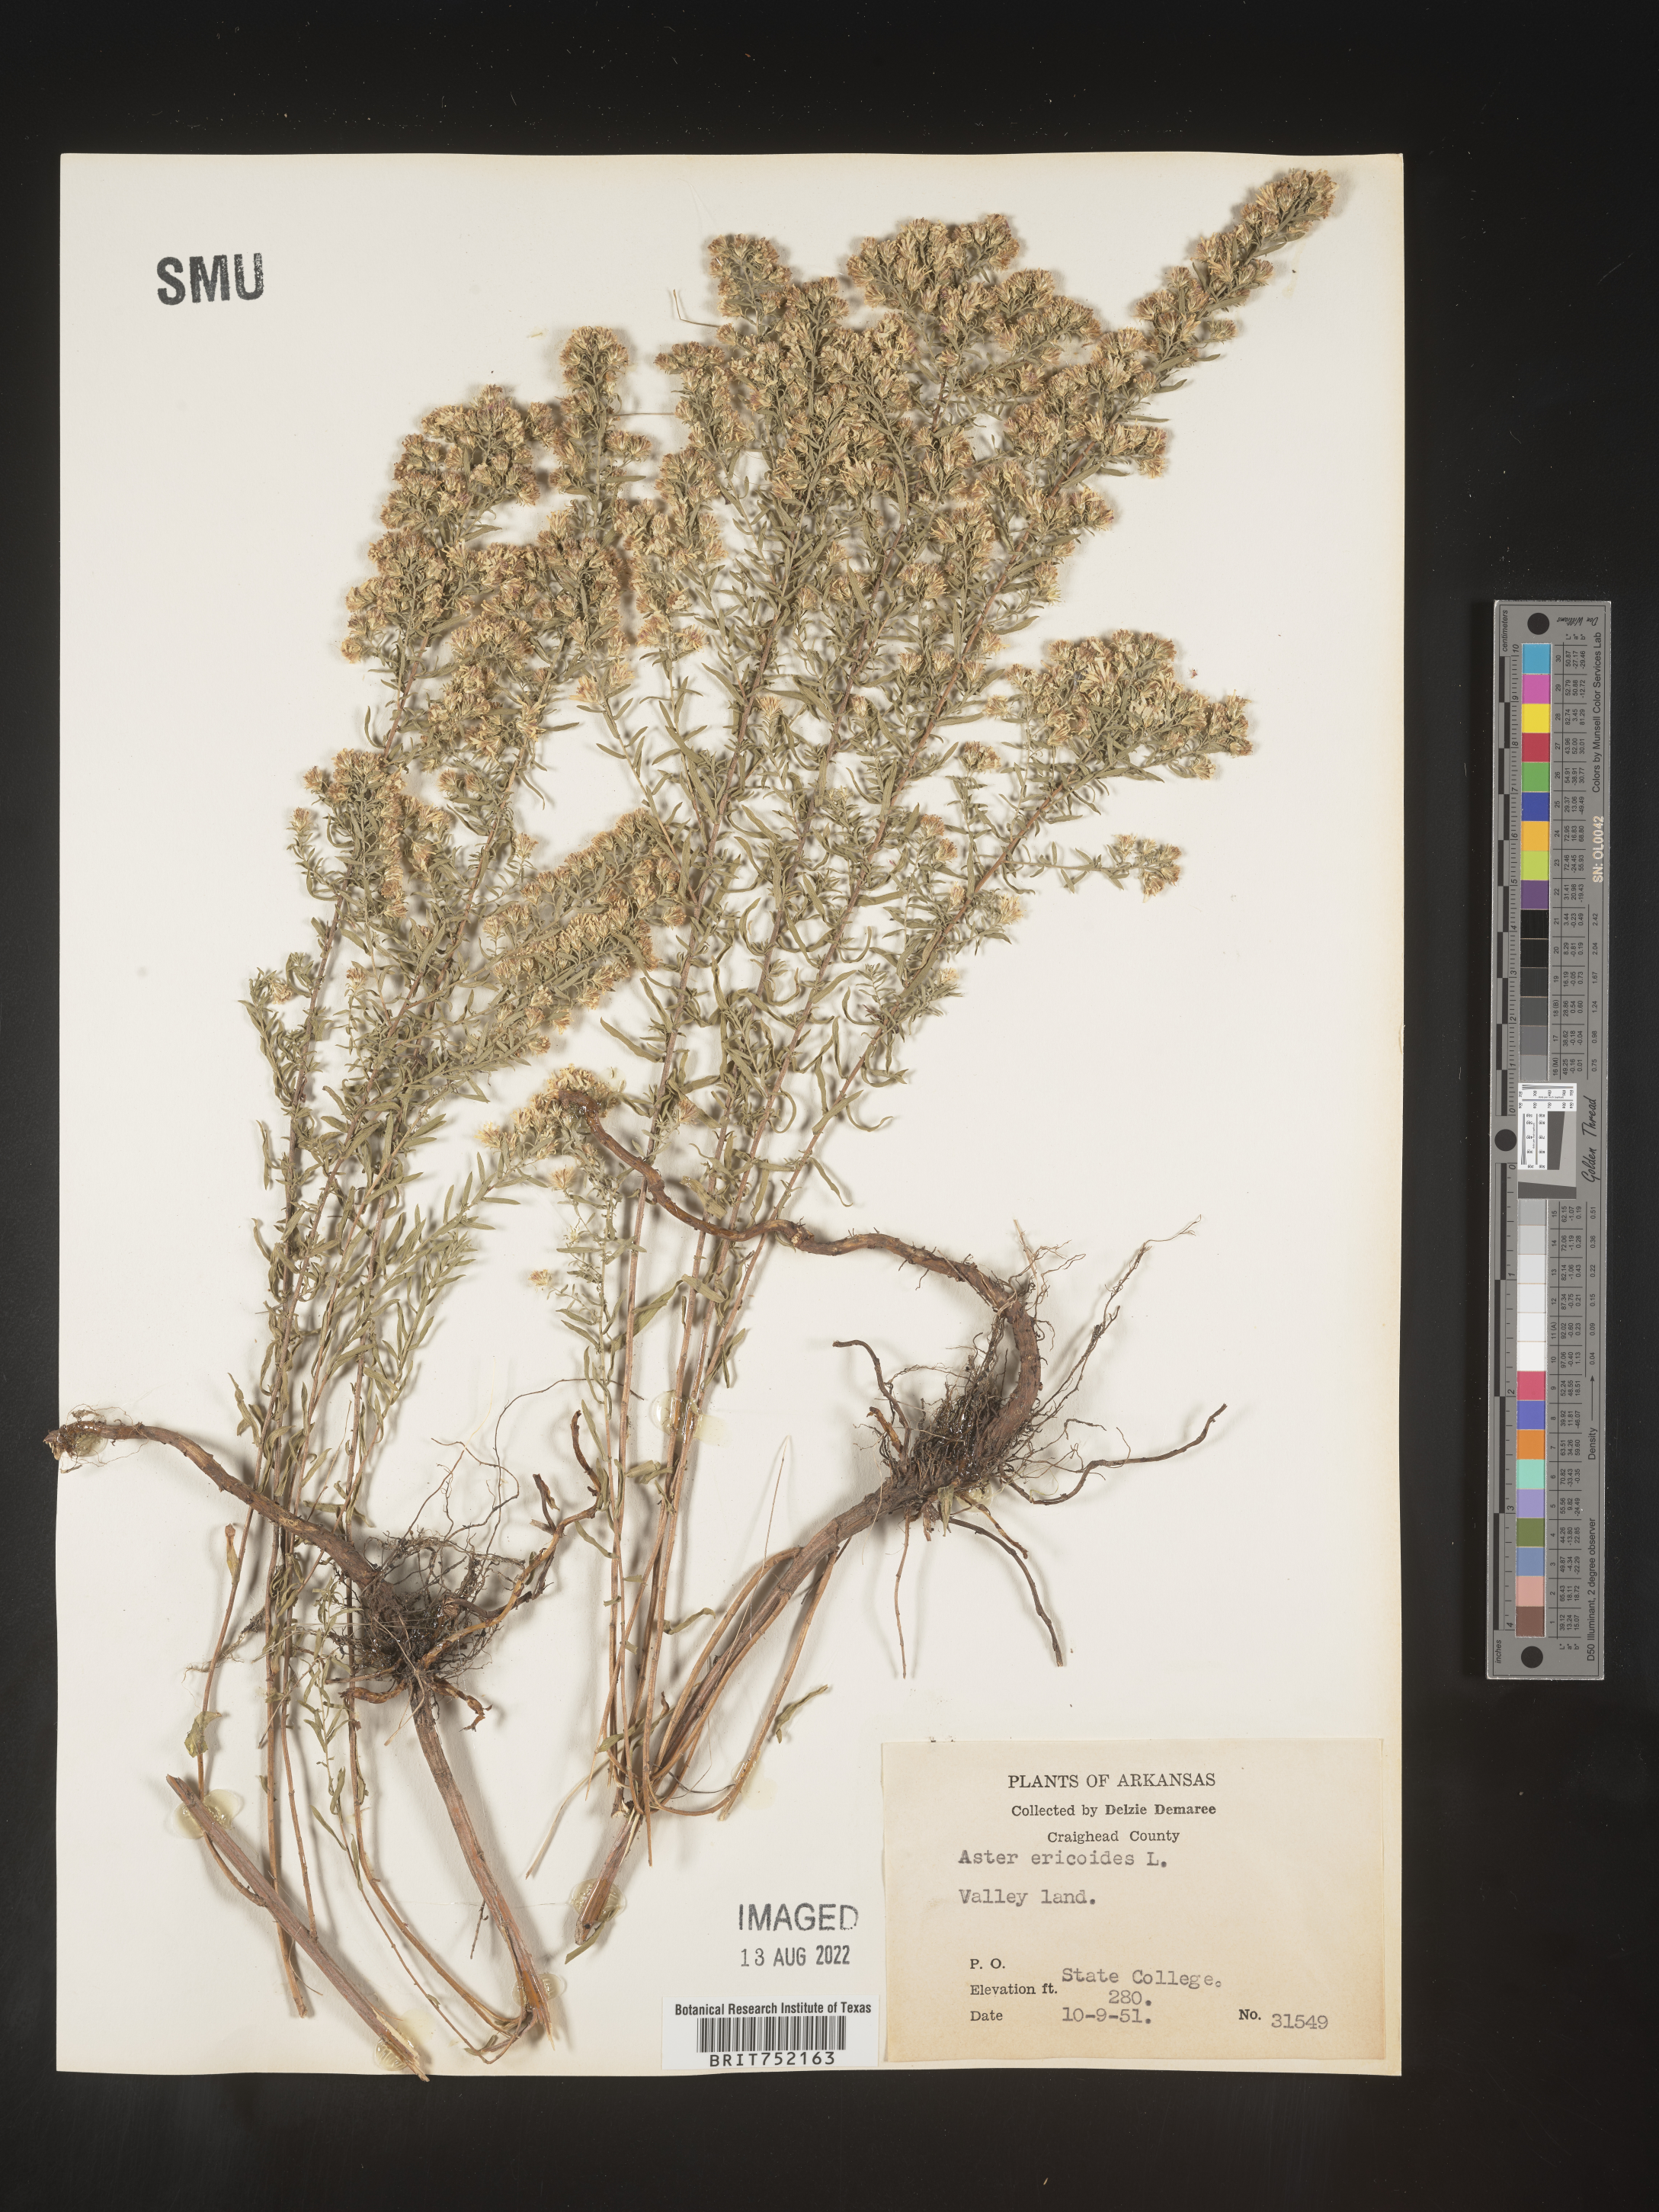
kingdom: Plantae
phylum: Tracheophyta
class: Magnoliopsida
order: Asterales
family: Asteraceae
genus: Symphyotrichum
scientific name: Symphyotrichum ericoides
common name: Heath aster
